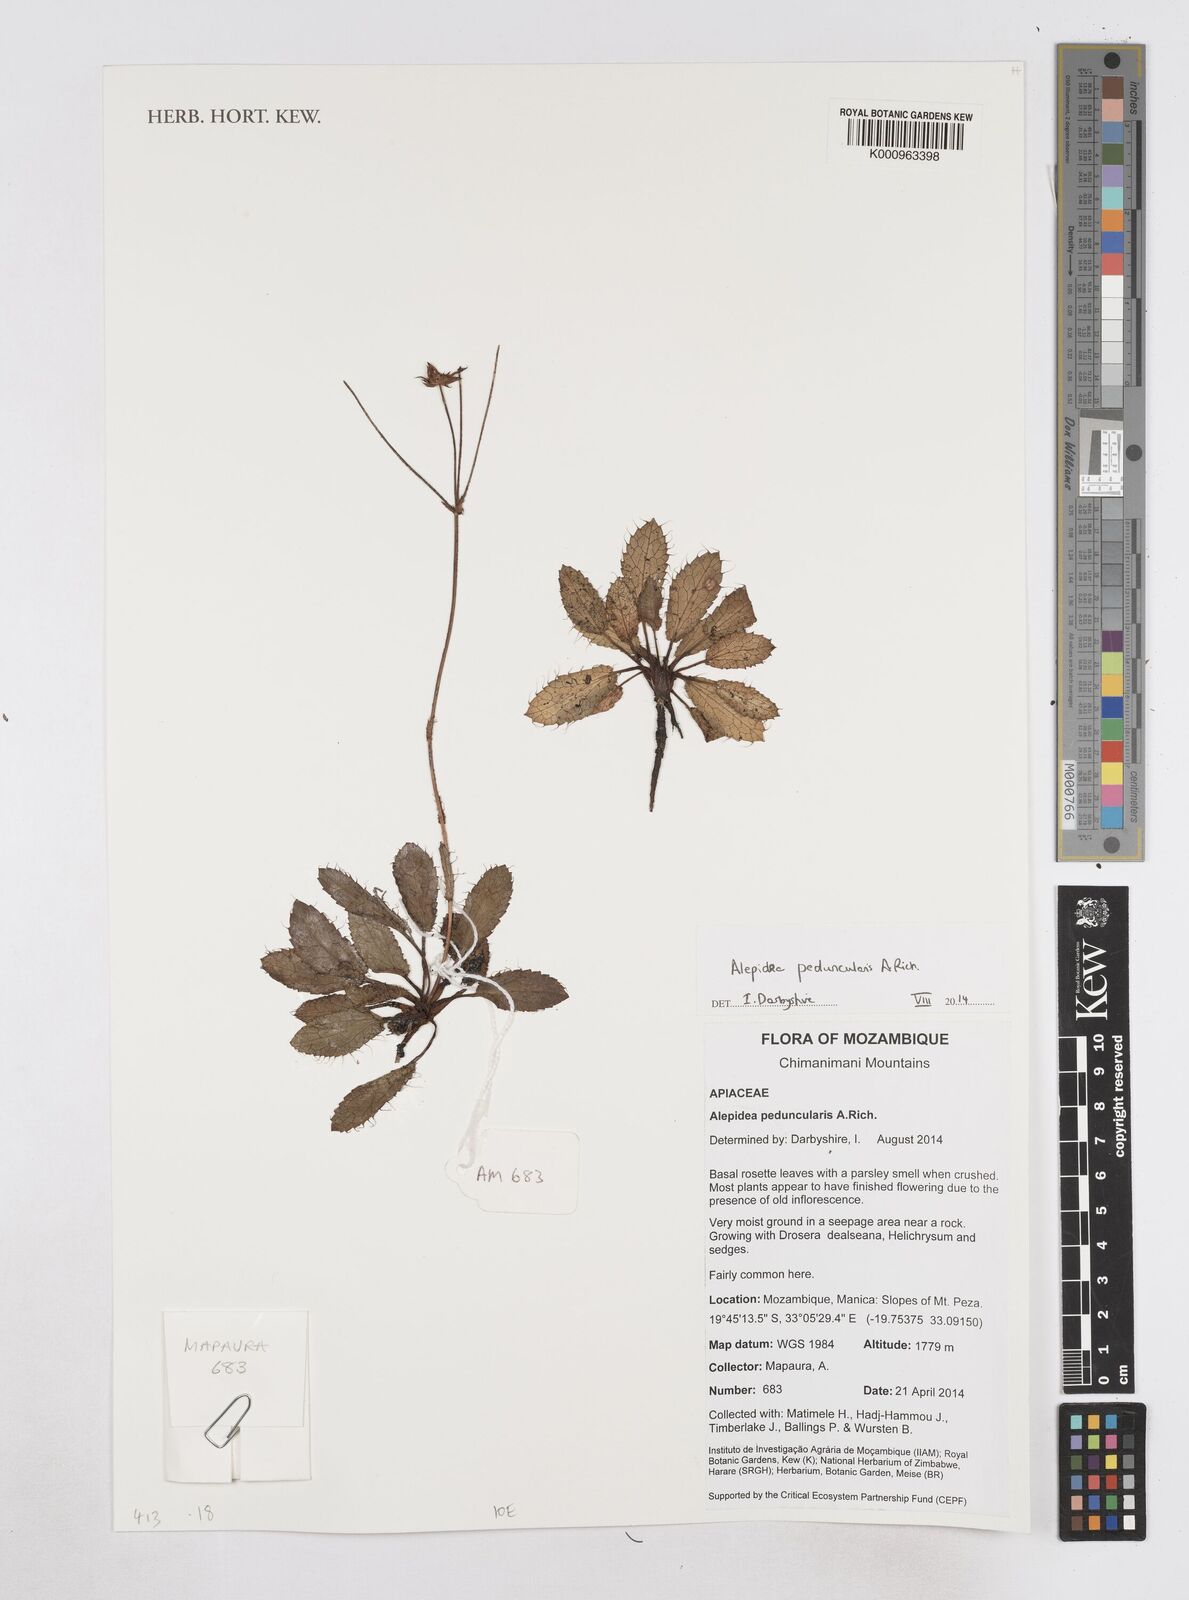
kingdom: Plantae
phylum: Tracheophyta
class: Magnoliopsida
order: Apiales
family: Apiaceae
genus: Alepidea
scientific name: Alepidea peduncularis
